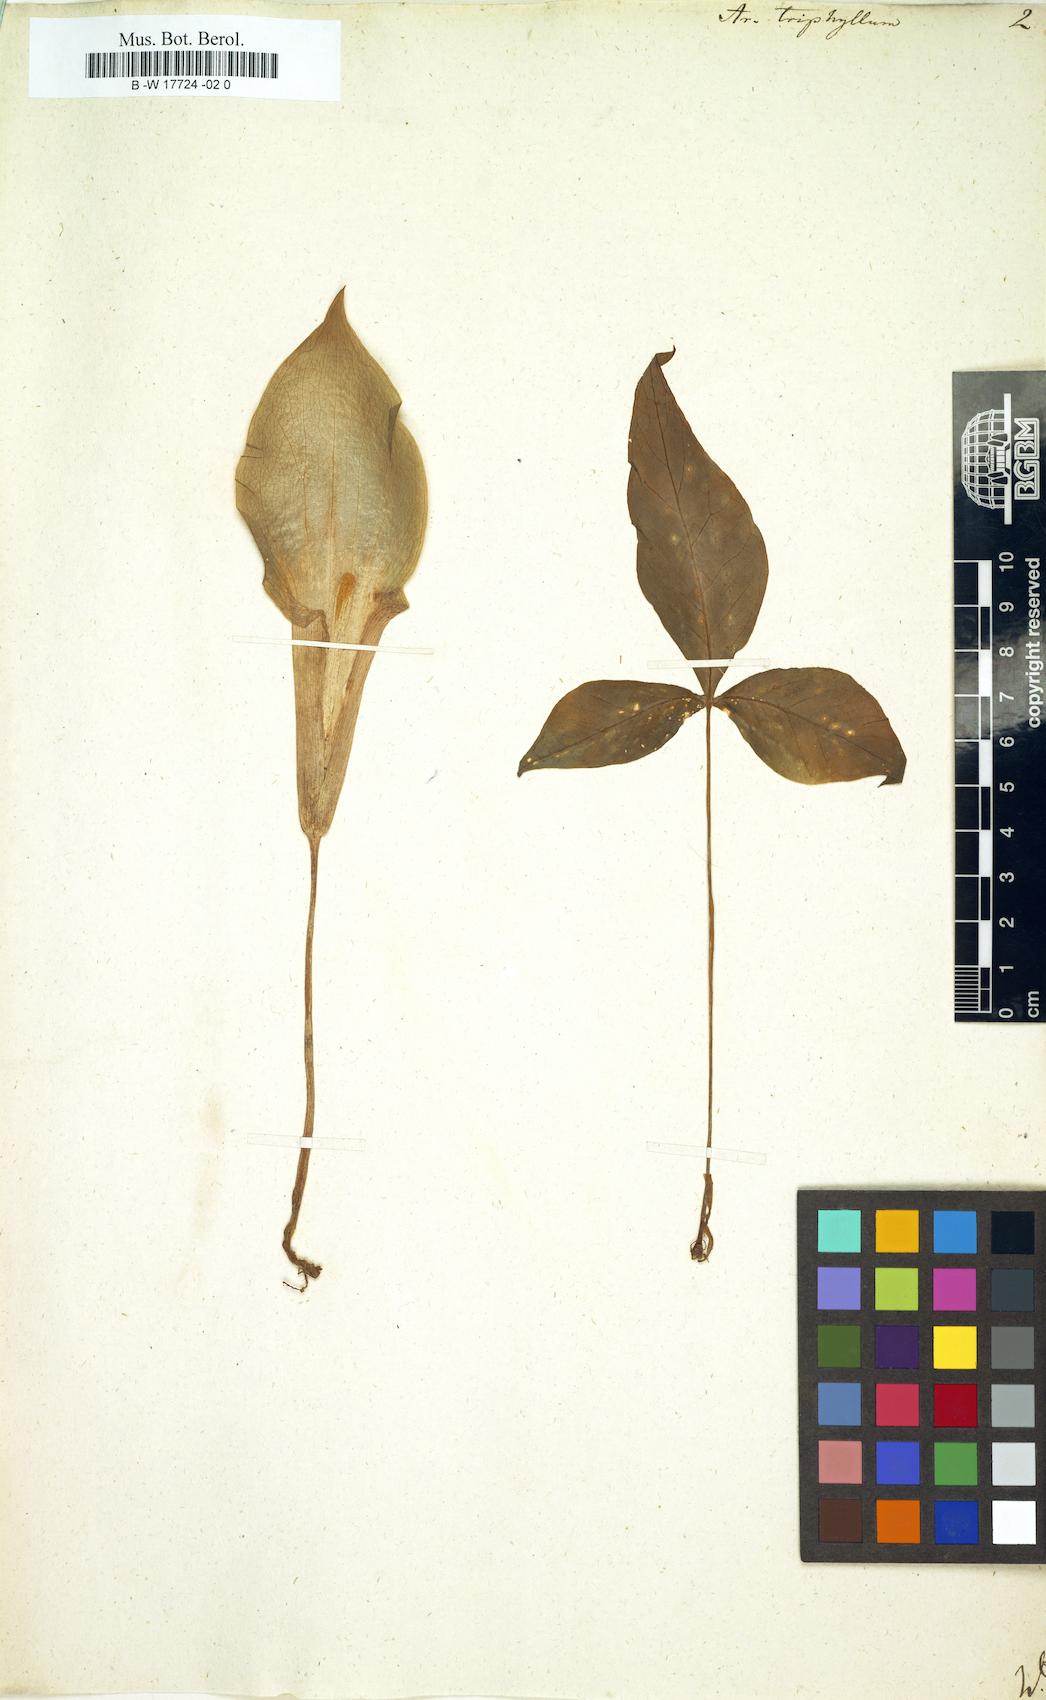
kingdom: Plantae
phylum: Tracheophyta
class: Liliopsida
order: Alismatales
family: Araceae
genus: Arisaema
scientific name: Arisaema triphyllum
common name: Jack-in-the-pulpit
